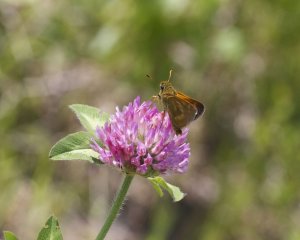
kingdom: Animalia
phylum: Arthropoda
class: Insecta
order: Lepidoptera
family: Hesperiidae
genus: Polites
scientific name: Polites
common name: Long Dash Skipper
